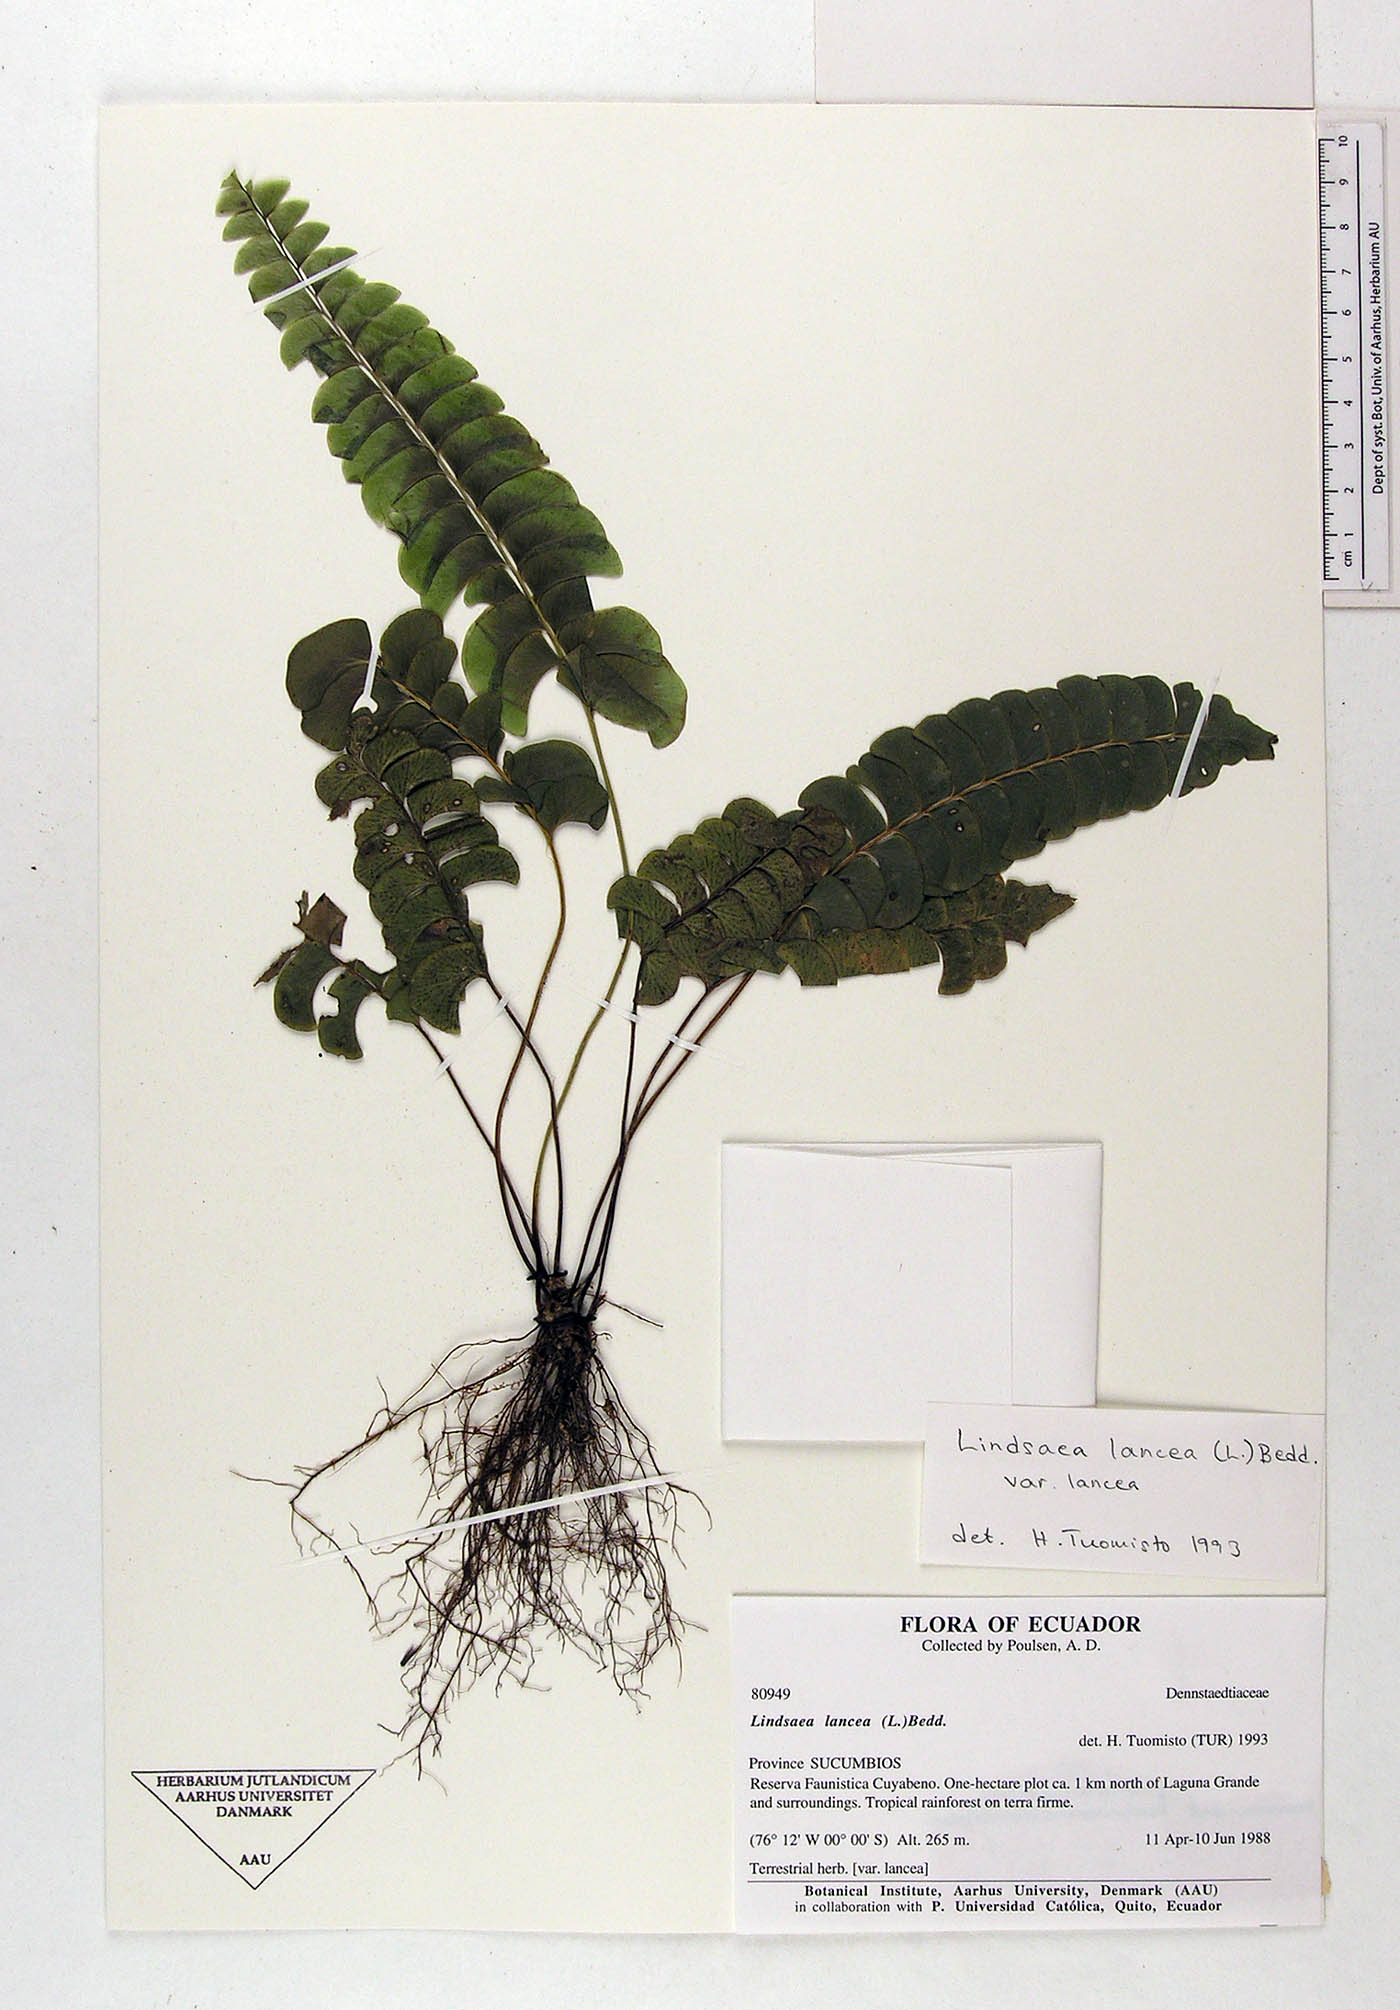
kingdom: Plantae
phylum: Tracheophyta
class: Polypodiopsida
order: Polypodiales
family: Lindsaeaceae
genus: Lindsaea
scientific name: Lindsaea lancea
